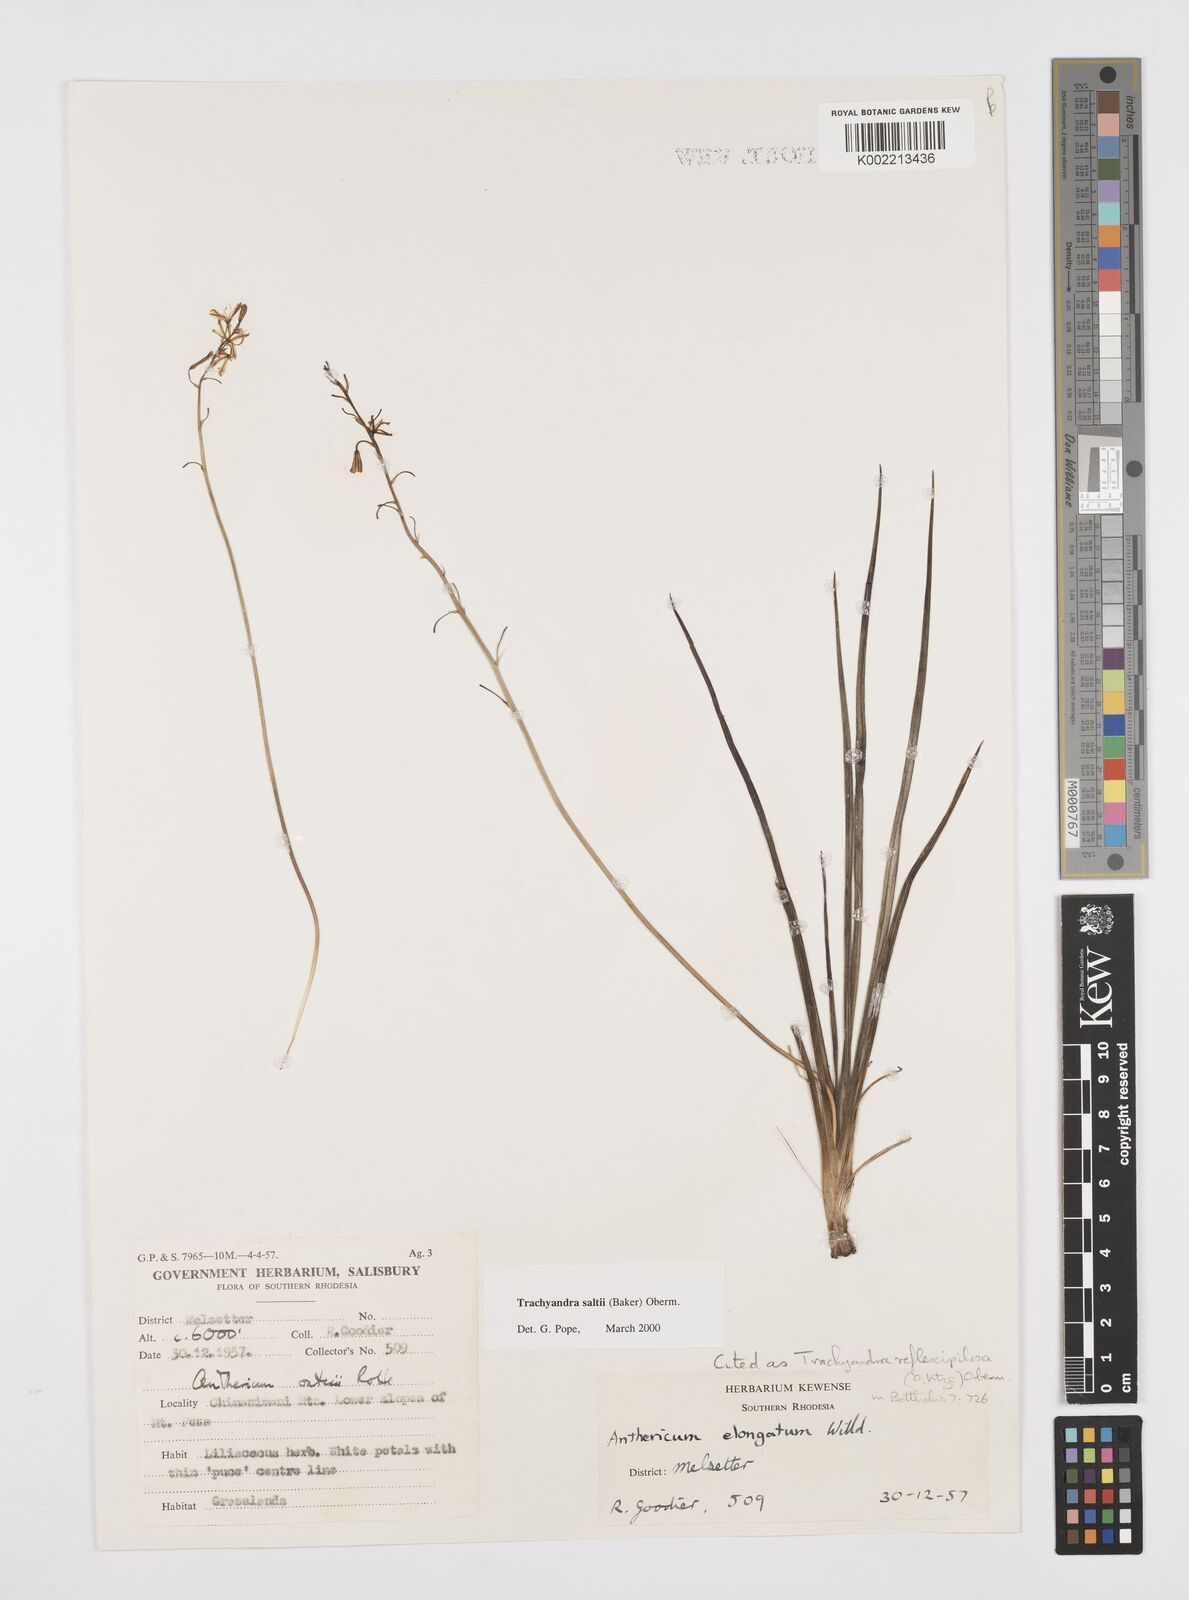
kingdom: Plantae
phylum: Tracheophyta
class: Liliopsida
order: Asparagales
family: Asphodelaceae
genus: Trachyandra
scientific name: Trachyandra saltii
